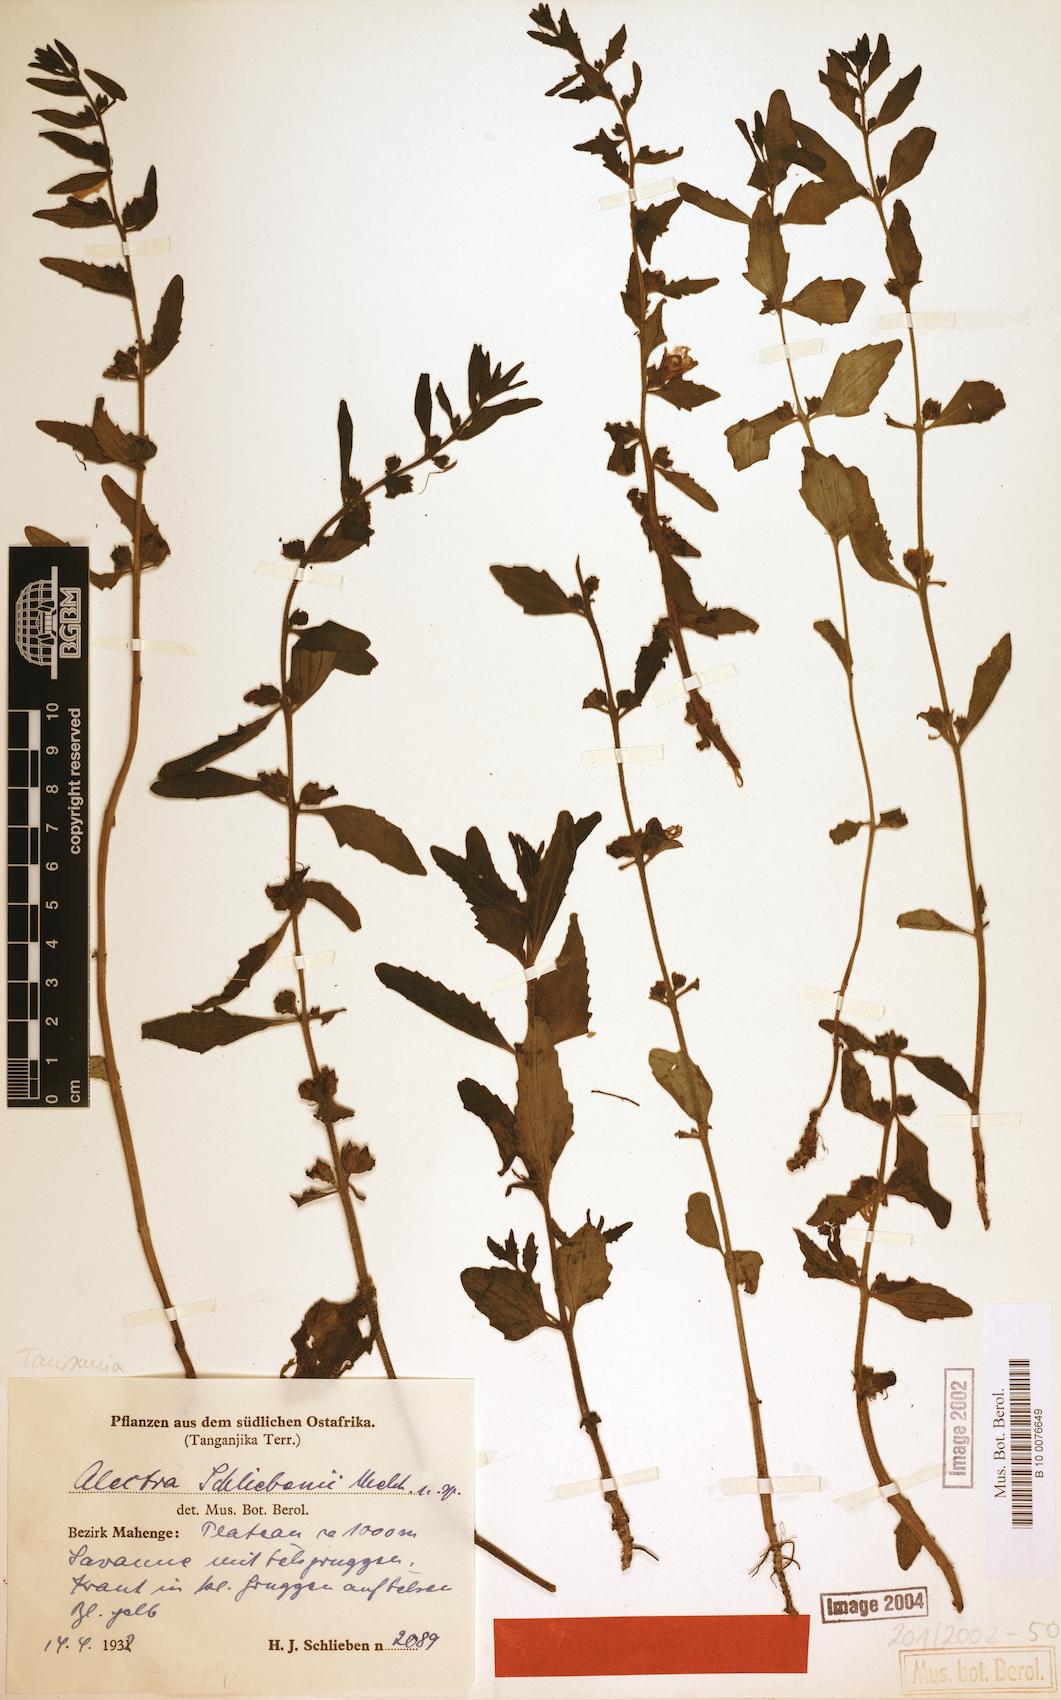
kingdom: Plantae
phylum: Tracheophyta
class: Magnoliopsida
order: Lamiales
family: Orobanchaceae
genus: Alectra
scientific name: Alectra sessiliflora
